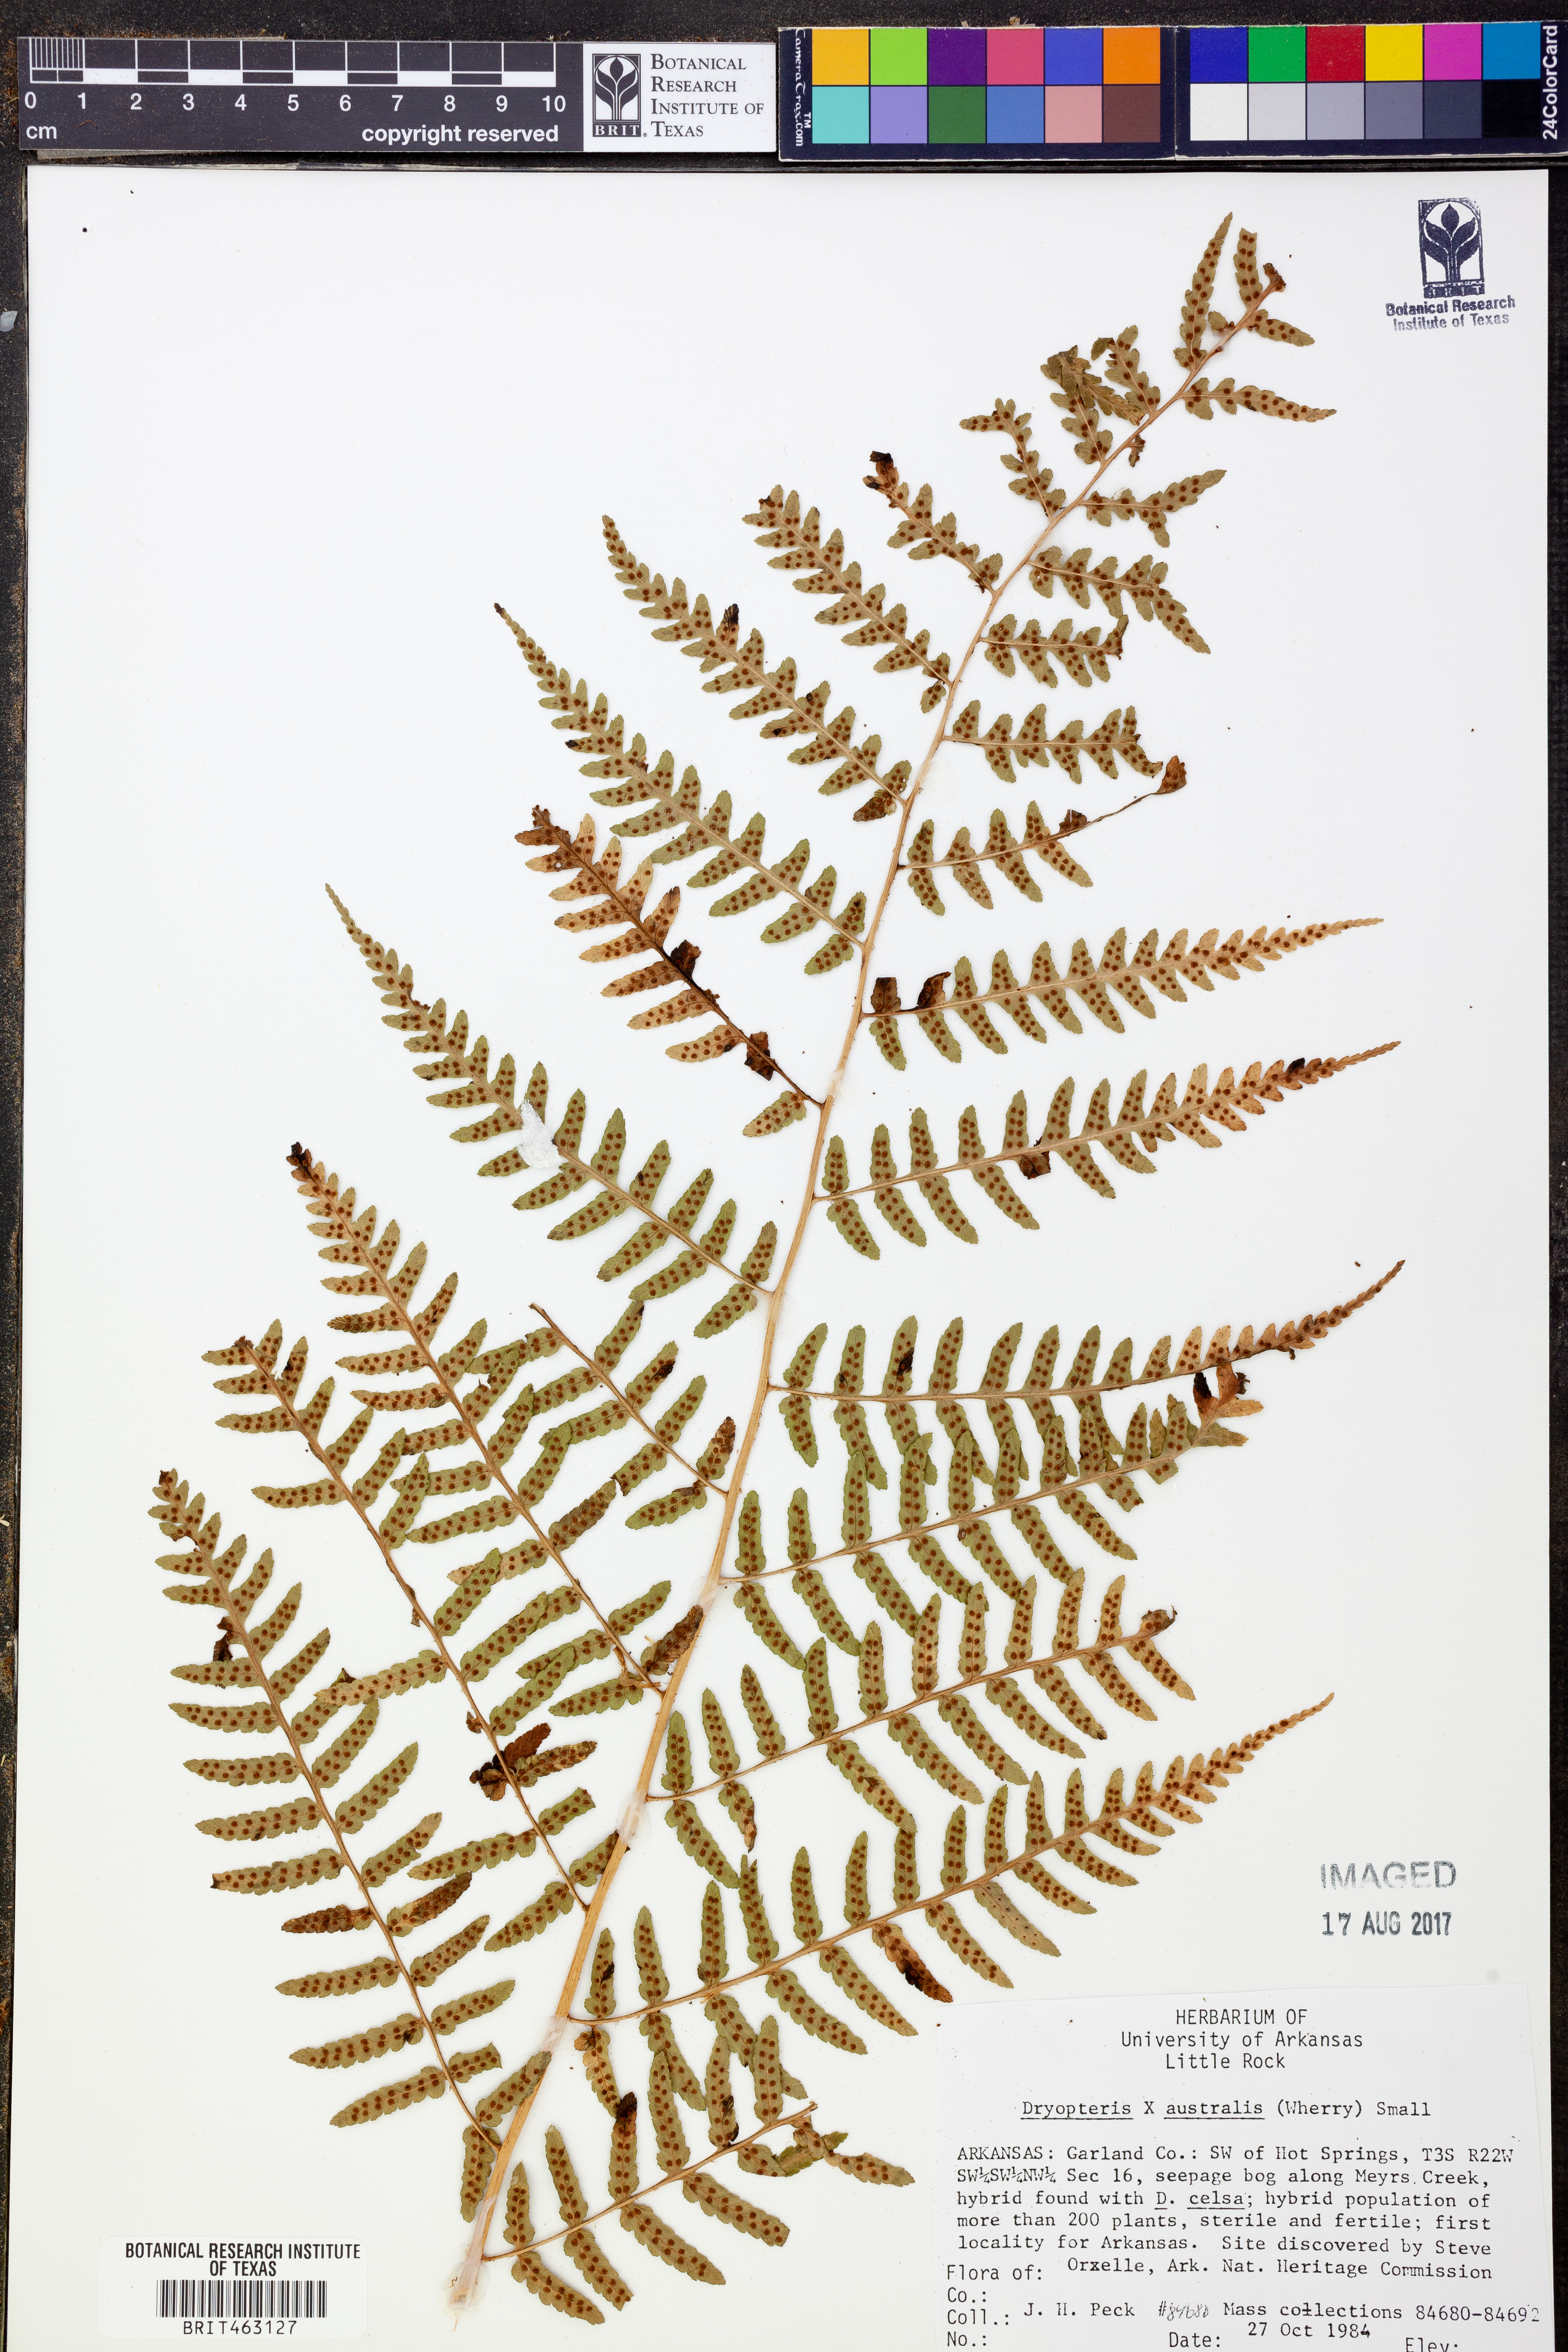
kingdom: Plantae
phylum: Tracheophyta
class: Polypodiopsida
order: Polypodiales
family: Dryopteridaceae
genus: Dryopteris
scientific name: Dryopteris
